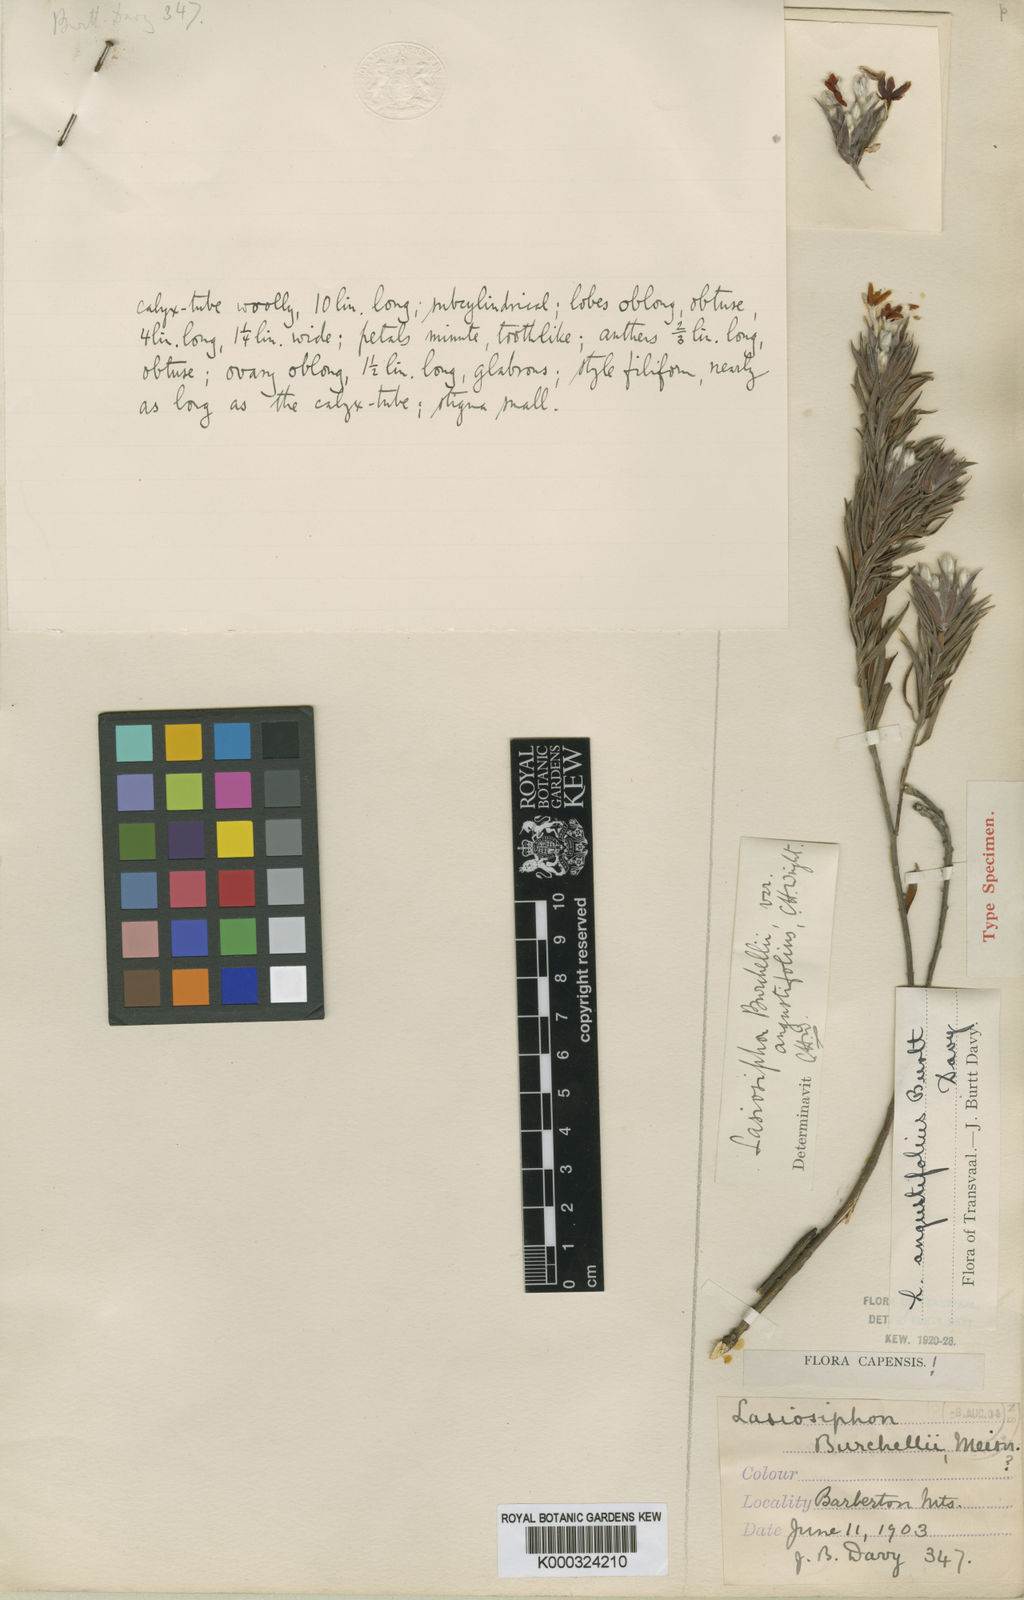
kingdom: Plantae
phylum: Tracheophyta
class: Magnoliopsida
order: Malvales
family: Thymelaeaceae
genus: Gnidia
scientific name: Gnidia burchellii
